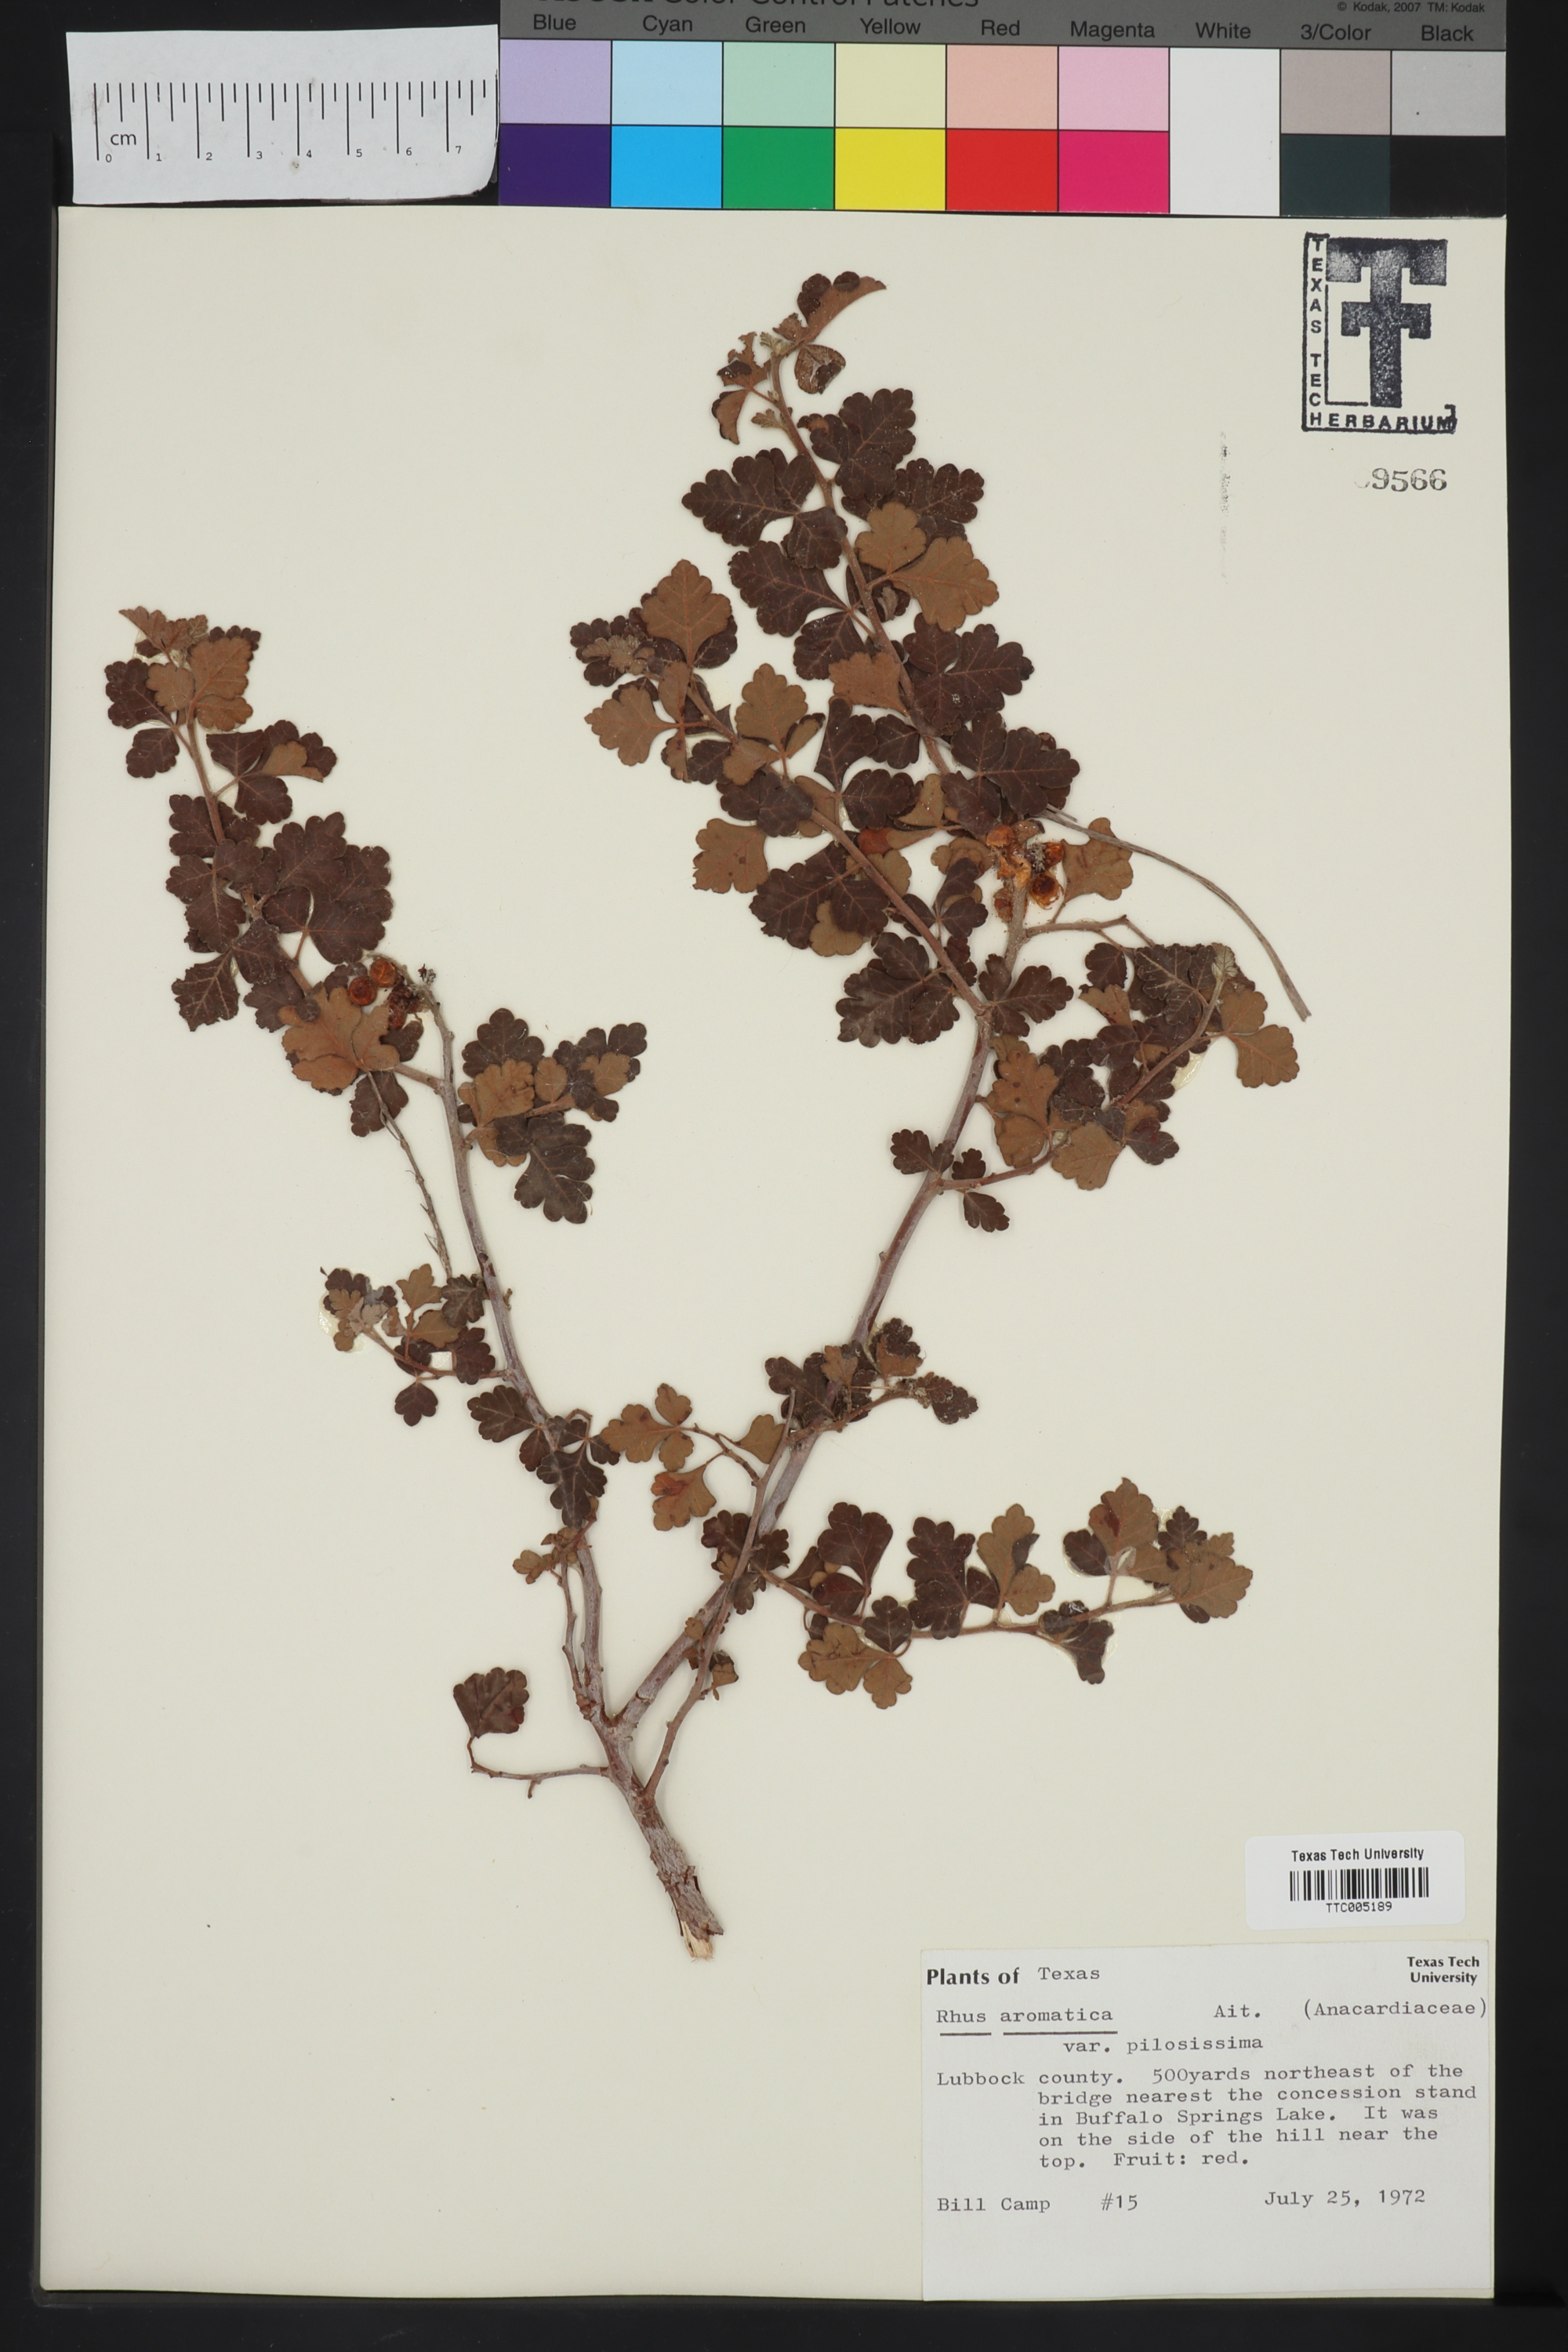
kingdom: Plantae
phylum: Tracheophyta
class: Magnoliopsida
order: Sapindales
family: Anacardiaceae
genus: Rhus
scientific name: Rhus trilobata
